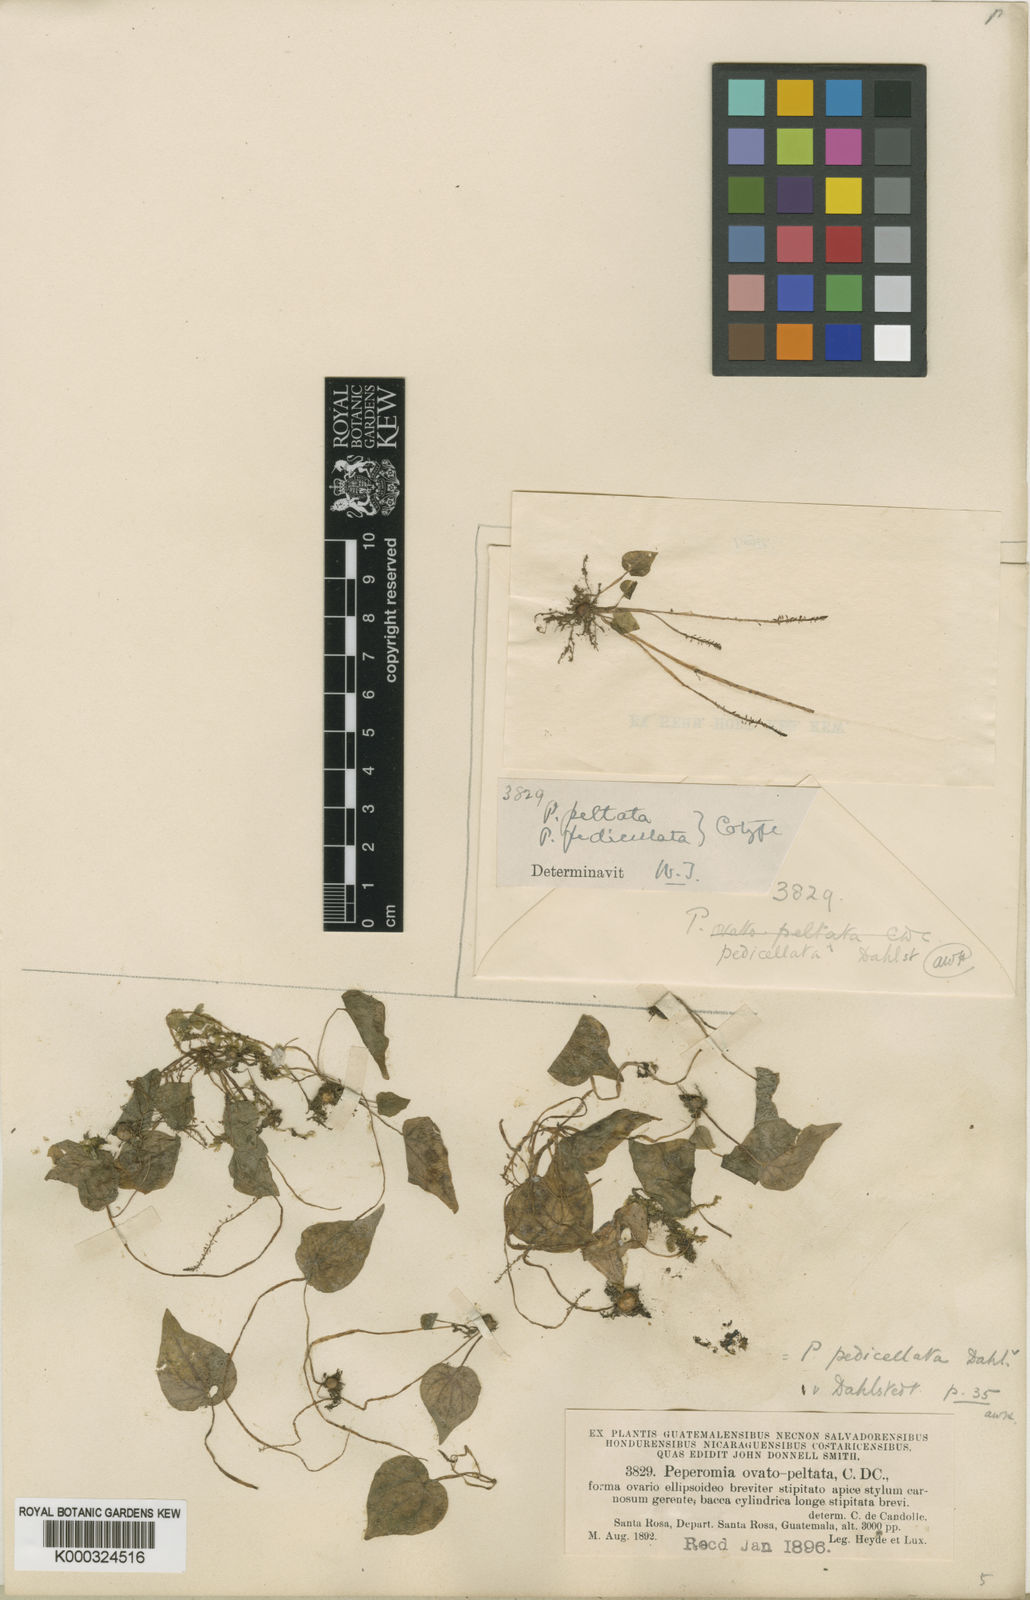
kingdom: Plantae
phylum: Tracheophyta
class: Magnoliopsida
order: Piperales
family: Piperaceae
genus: Peperomia
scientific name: Peperomia pedicellata
